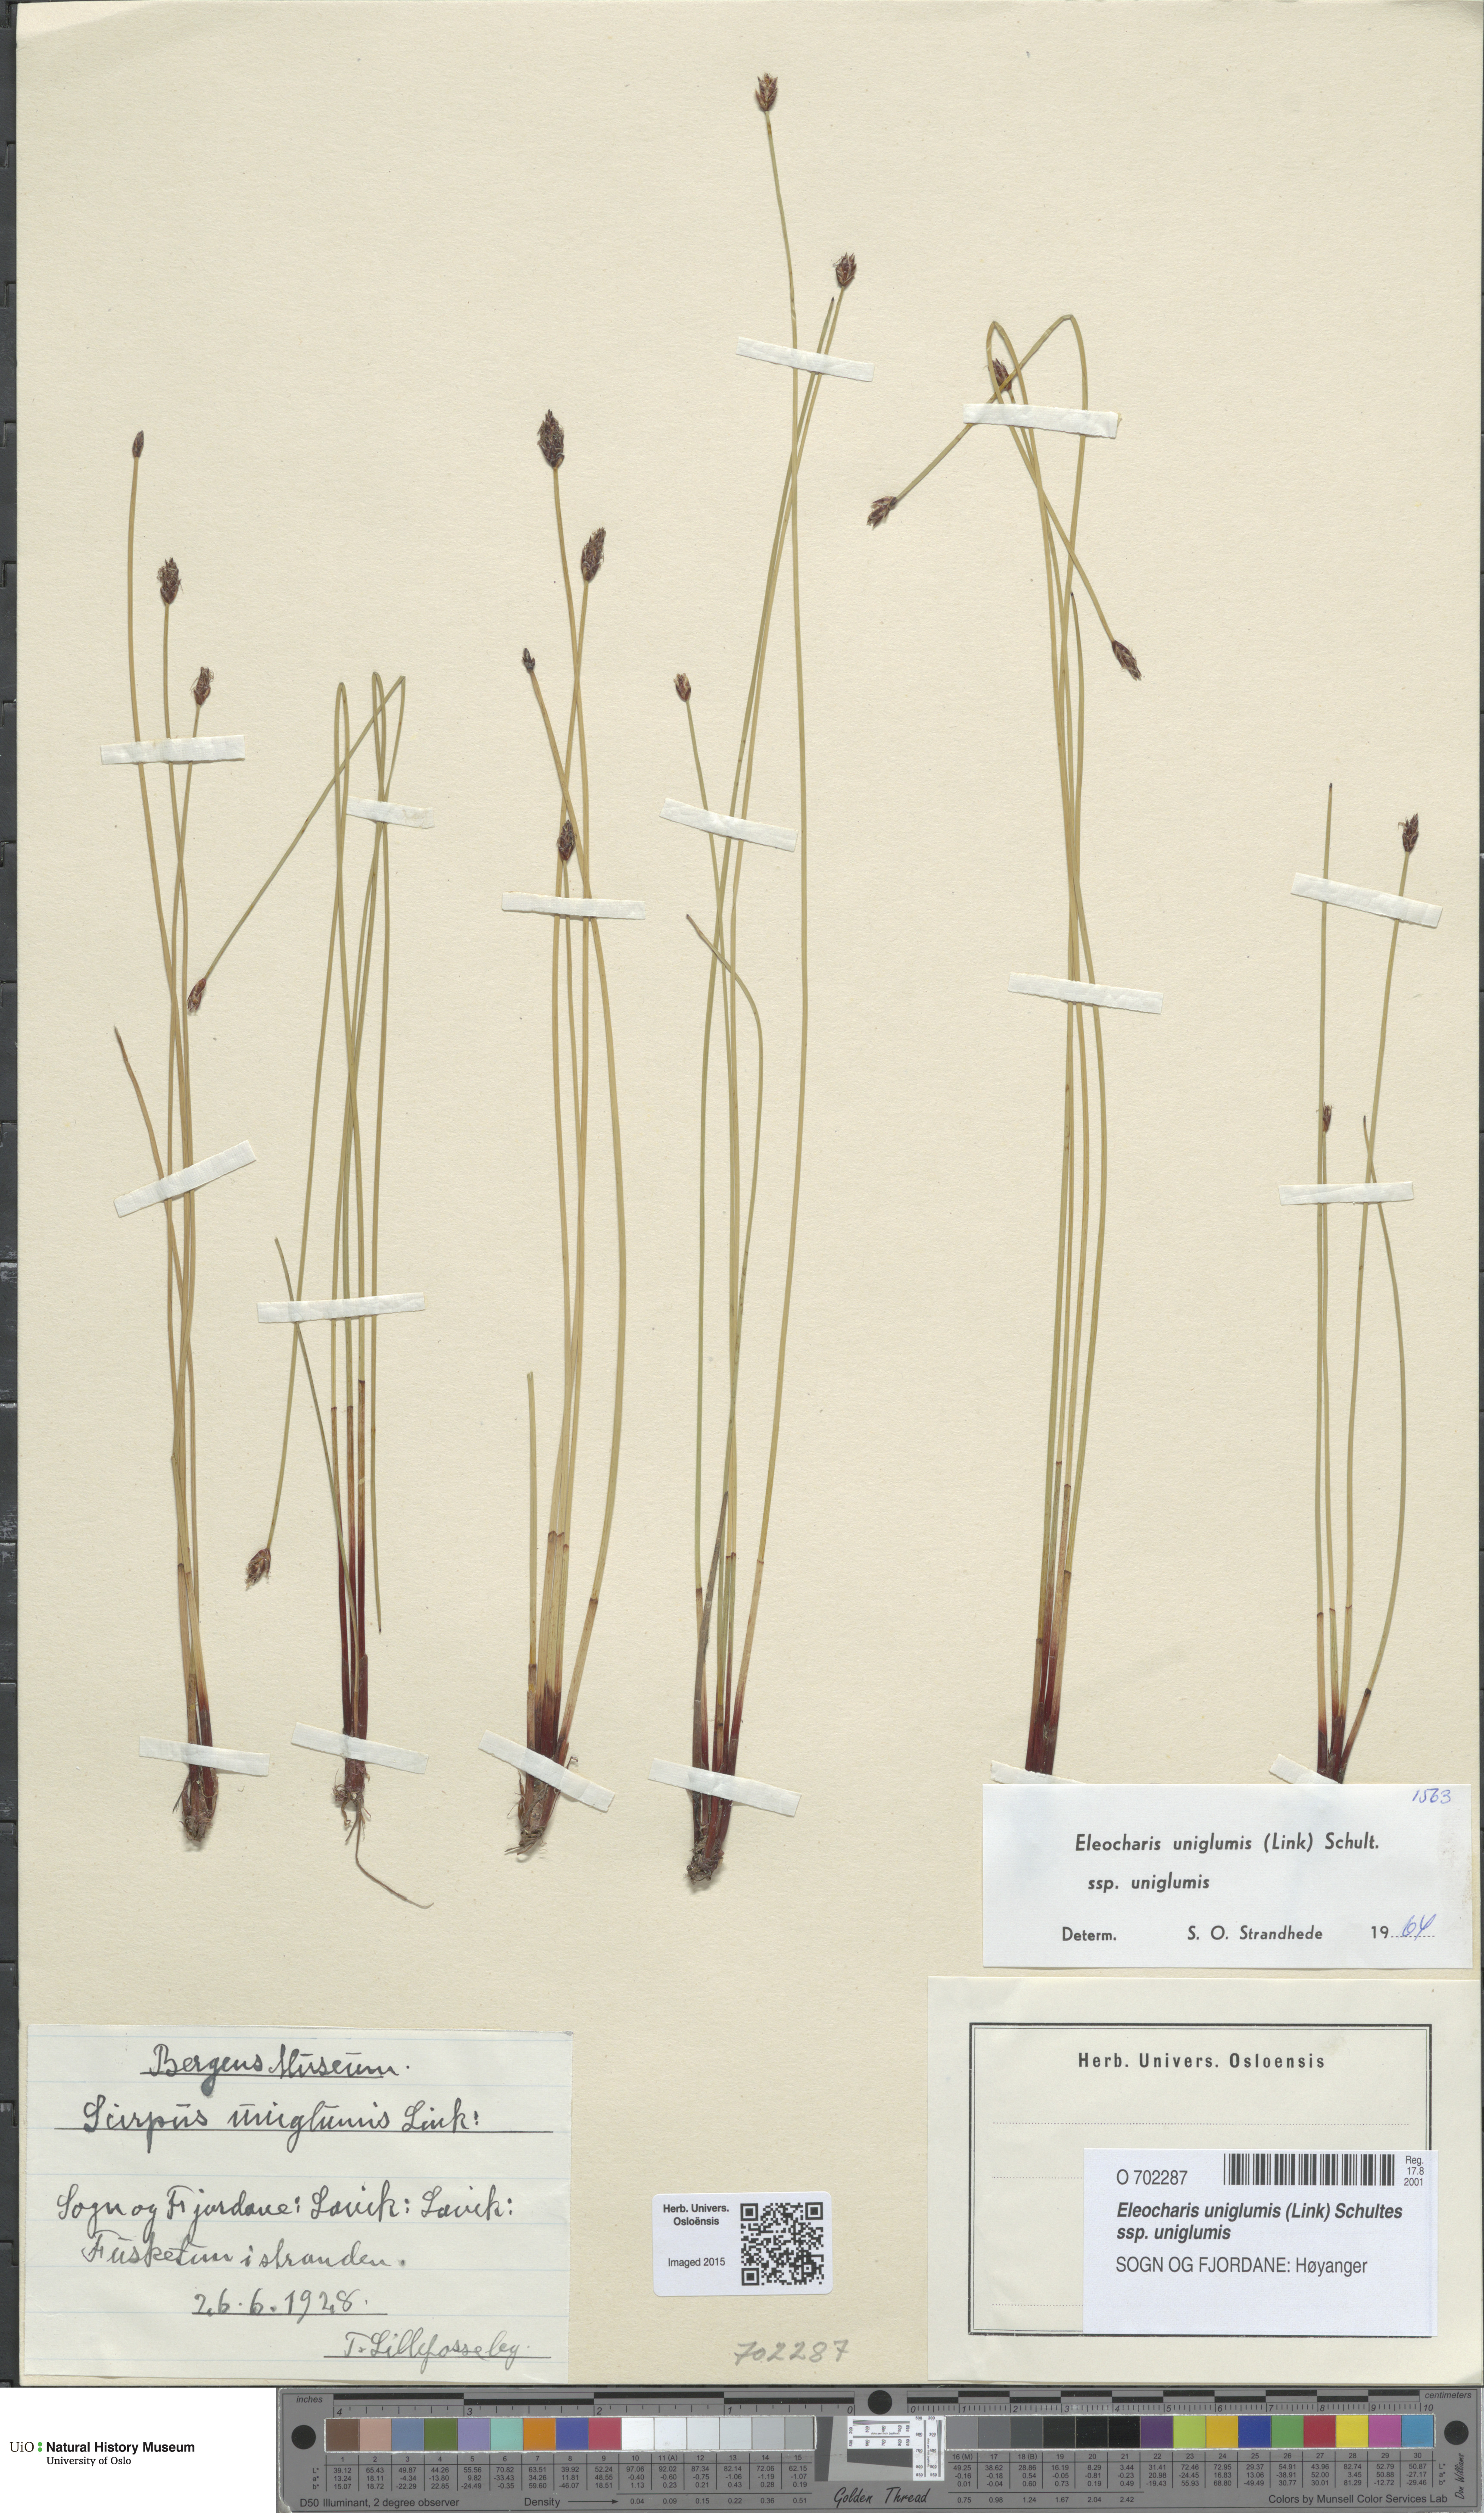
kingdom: Plantae
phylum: Tracheophyta
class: Liliopsida
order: Poales
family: Cyperaceae
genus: Eleocharis
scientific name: Eleocharis uniglumis
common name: Slender spike-rush
